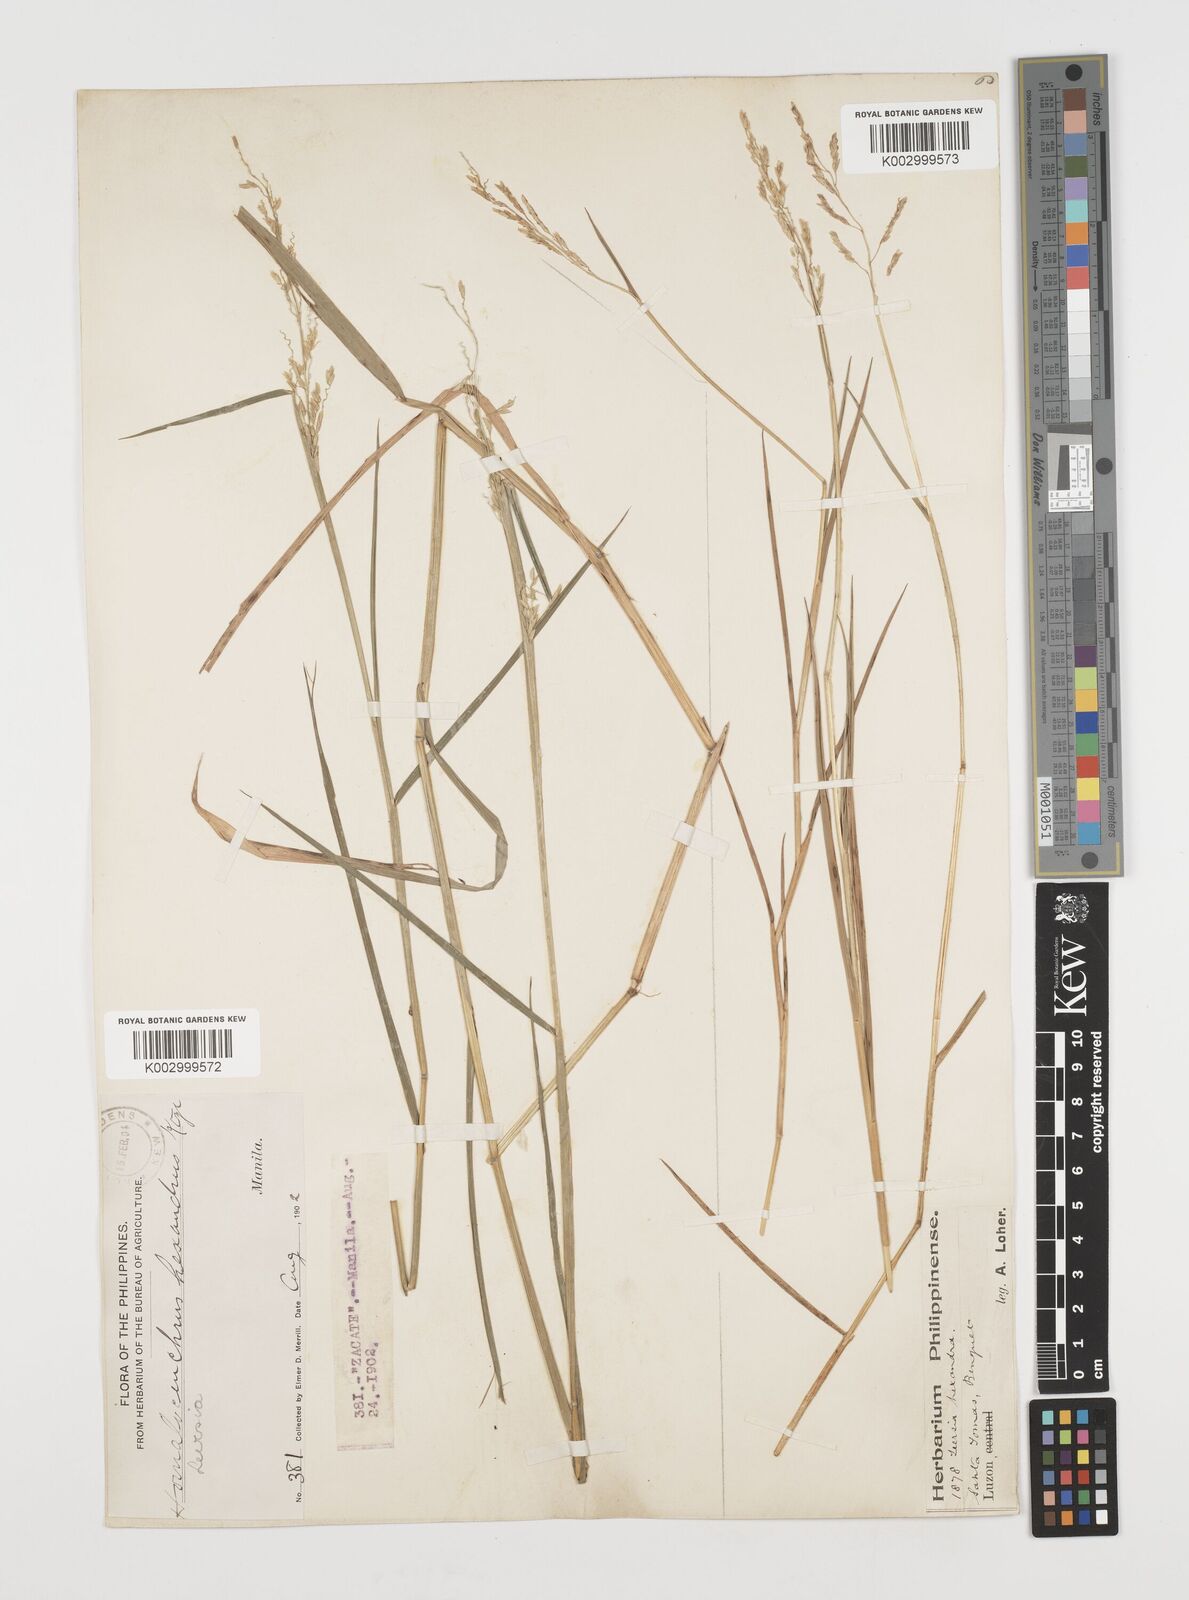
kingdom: Plantae
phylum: Tracheophyta
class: Liliopsida
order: Poales
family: Poaceae
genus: Leersia
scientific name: Leersia hexandra
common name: Southern cut grass
